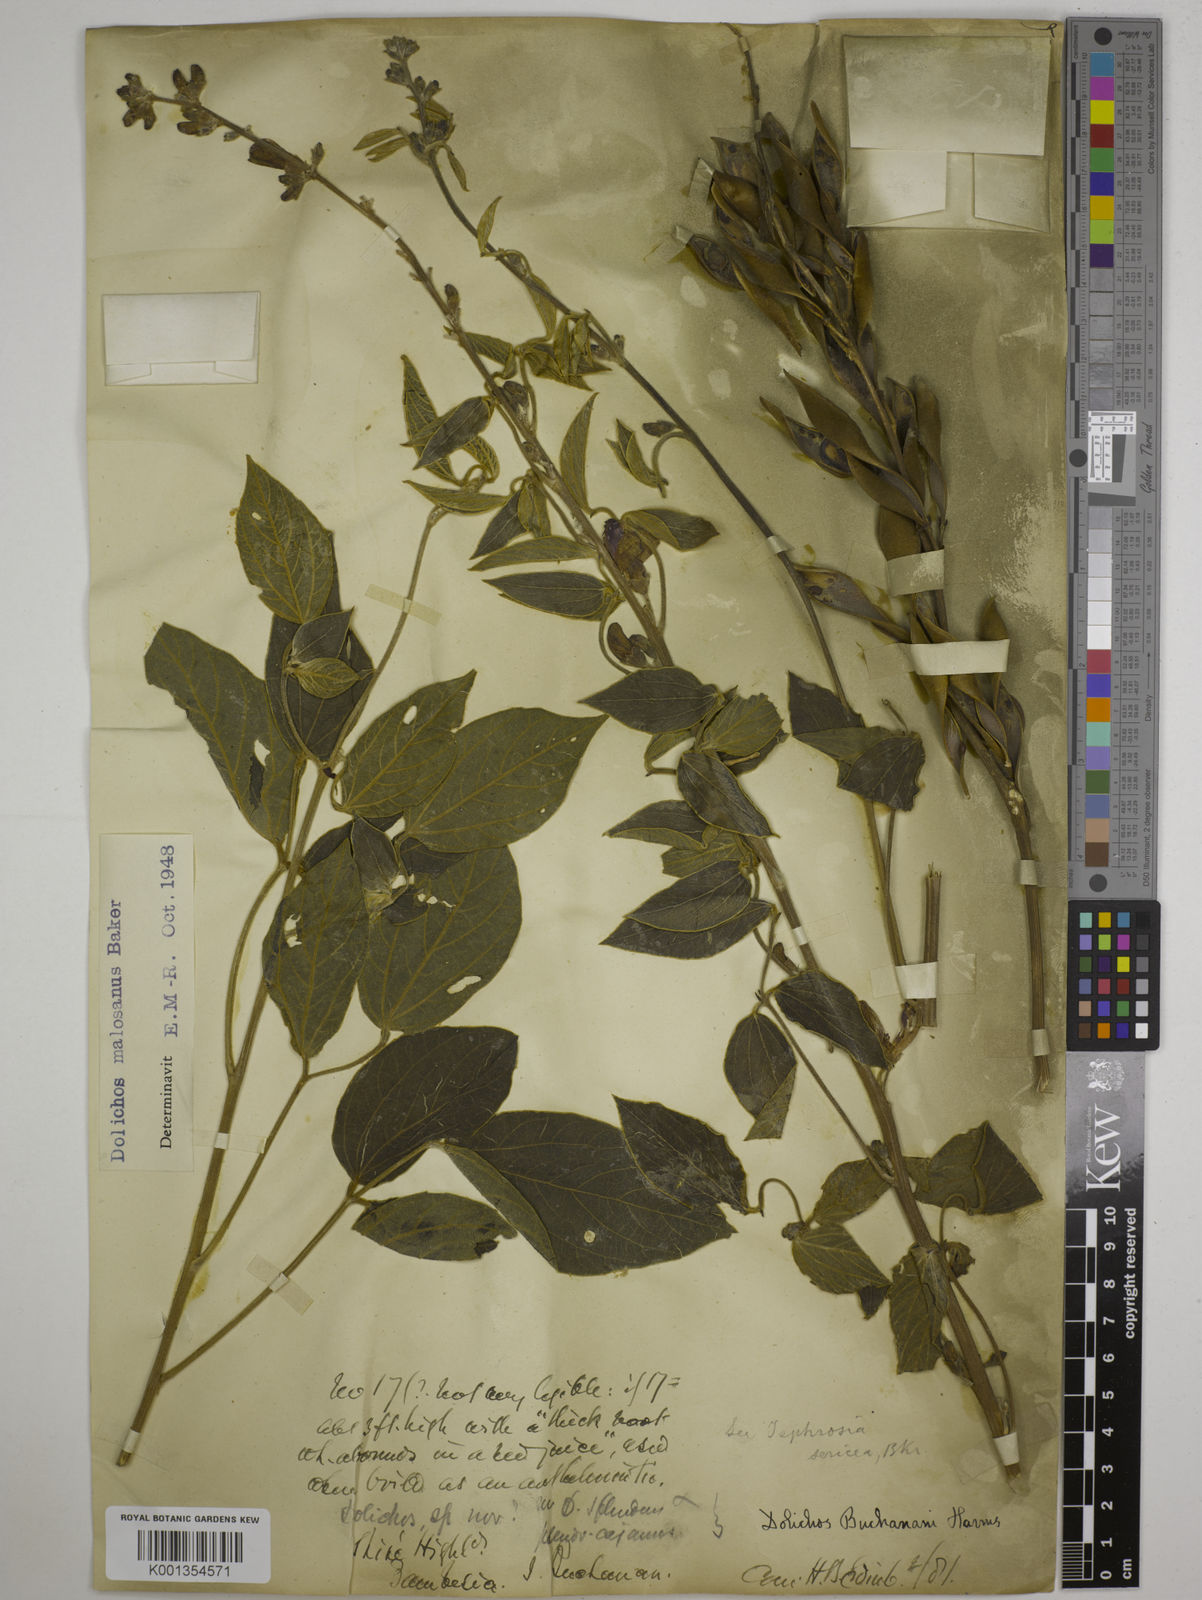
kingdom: Plantae
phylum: Tracheophyta
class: Magnoliopsida
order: Fabales
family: Fabaceae
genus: Dolichos
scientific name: Dolichos kilimandscharicus
